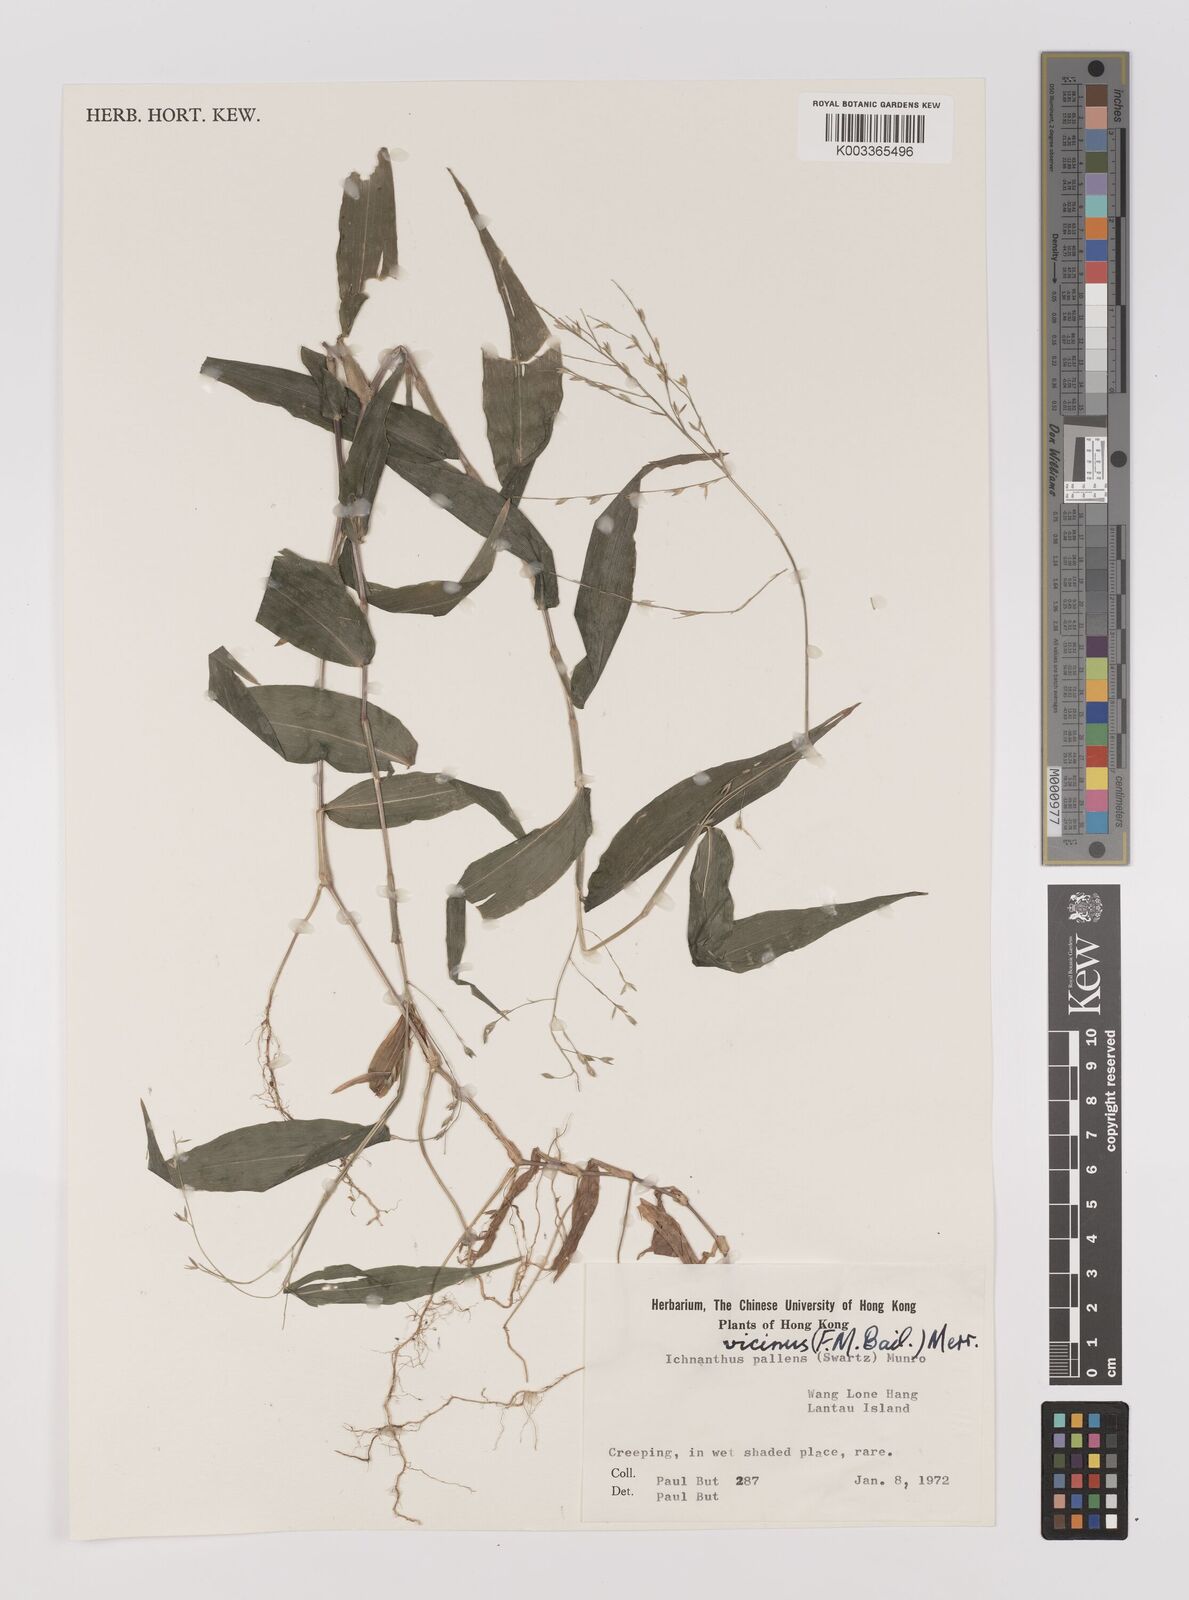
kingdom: Plantae
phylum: Tracheophyta
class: Liliopsida
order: Poales
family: Poaceae
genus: Ichnanthus
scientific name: Ichnanthus pallens
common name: Water grass
